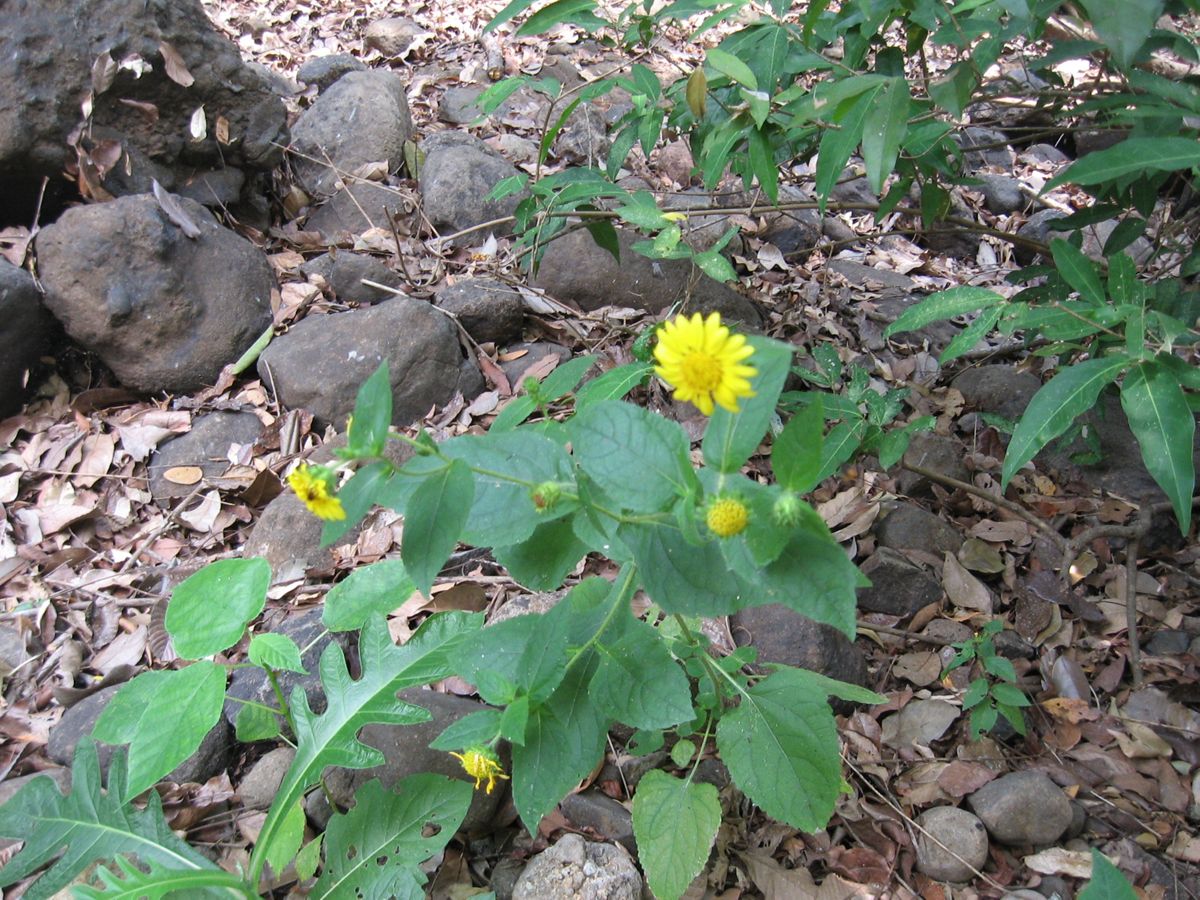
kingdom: Plantae
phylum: Tracheophyta
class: Magnoliopsida
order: Asterales
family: Asteraceae
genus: Simsia
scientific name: Simsia foetida
